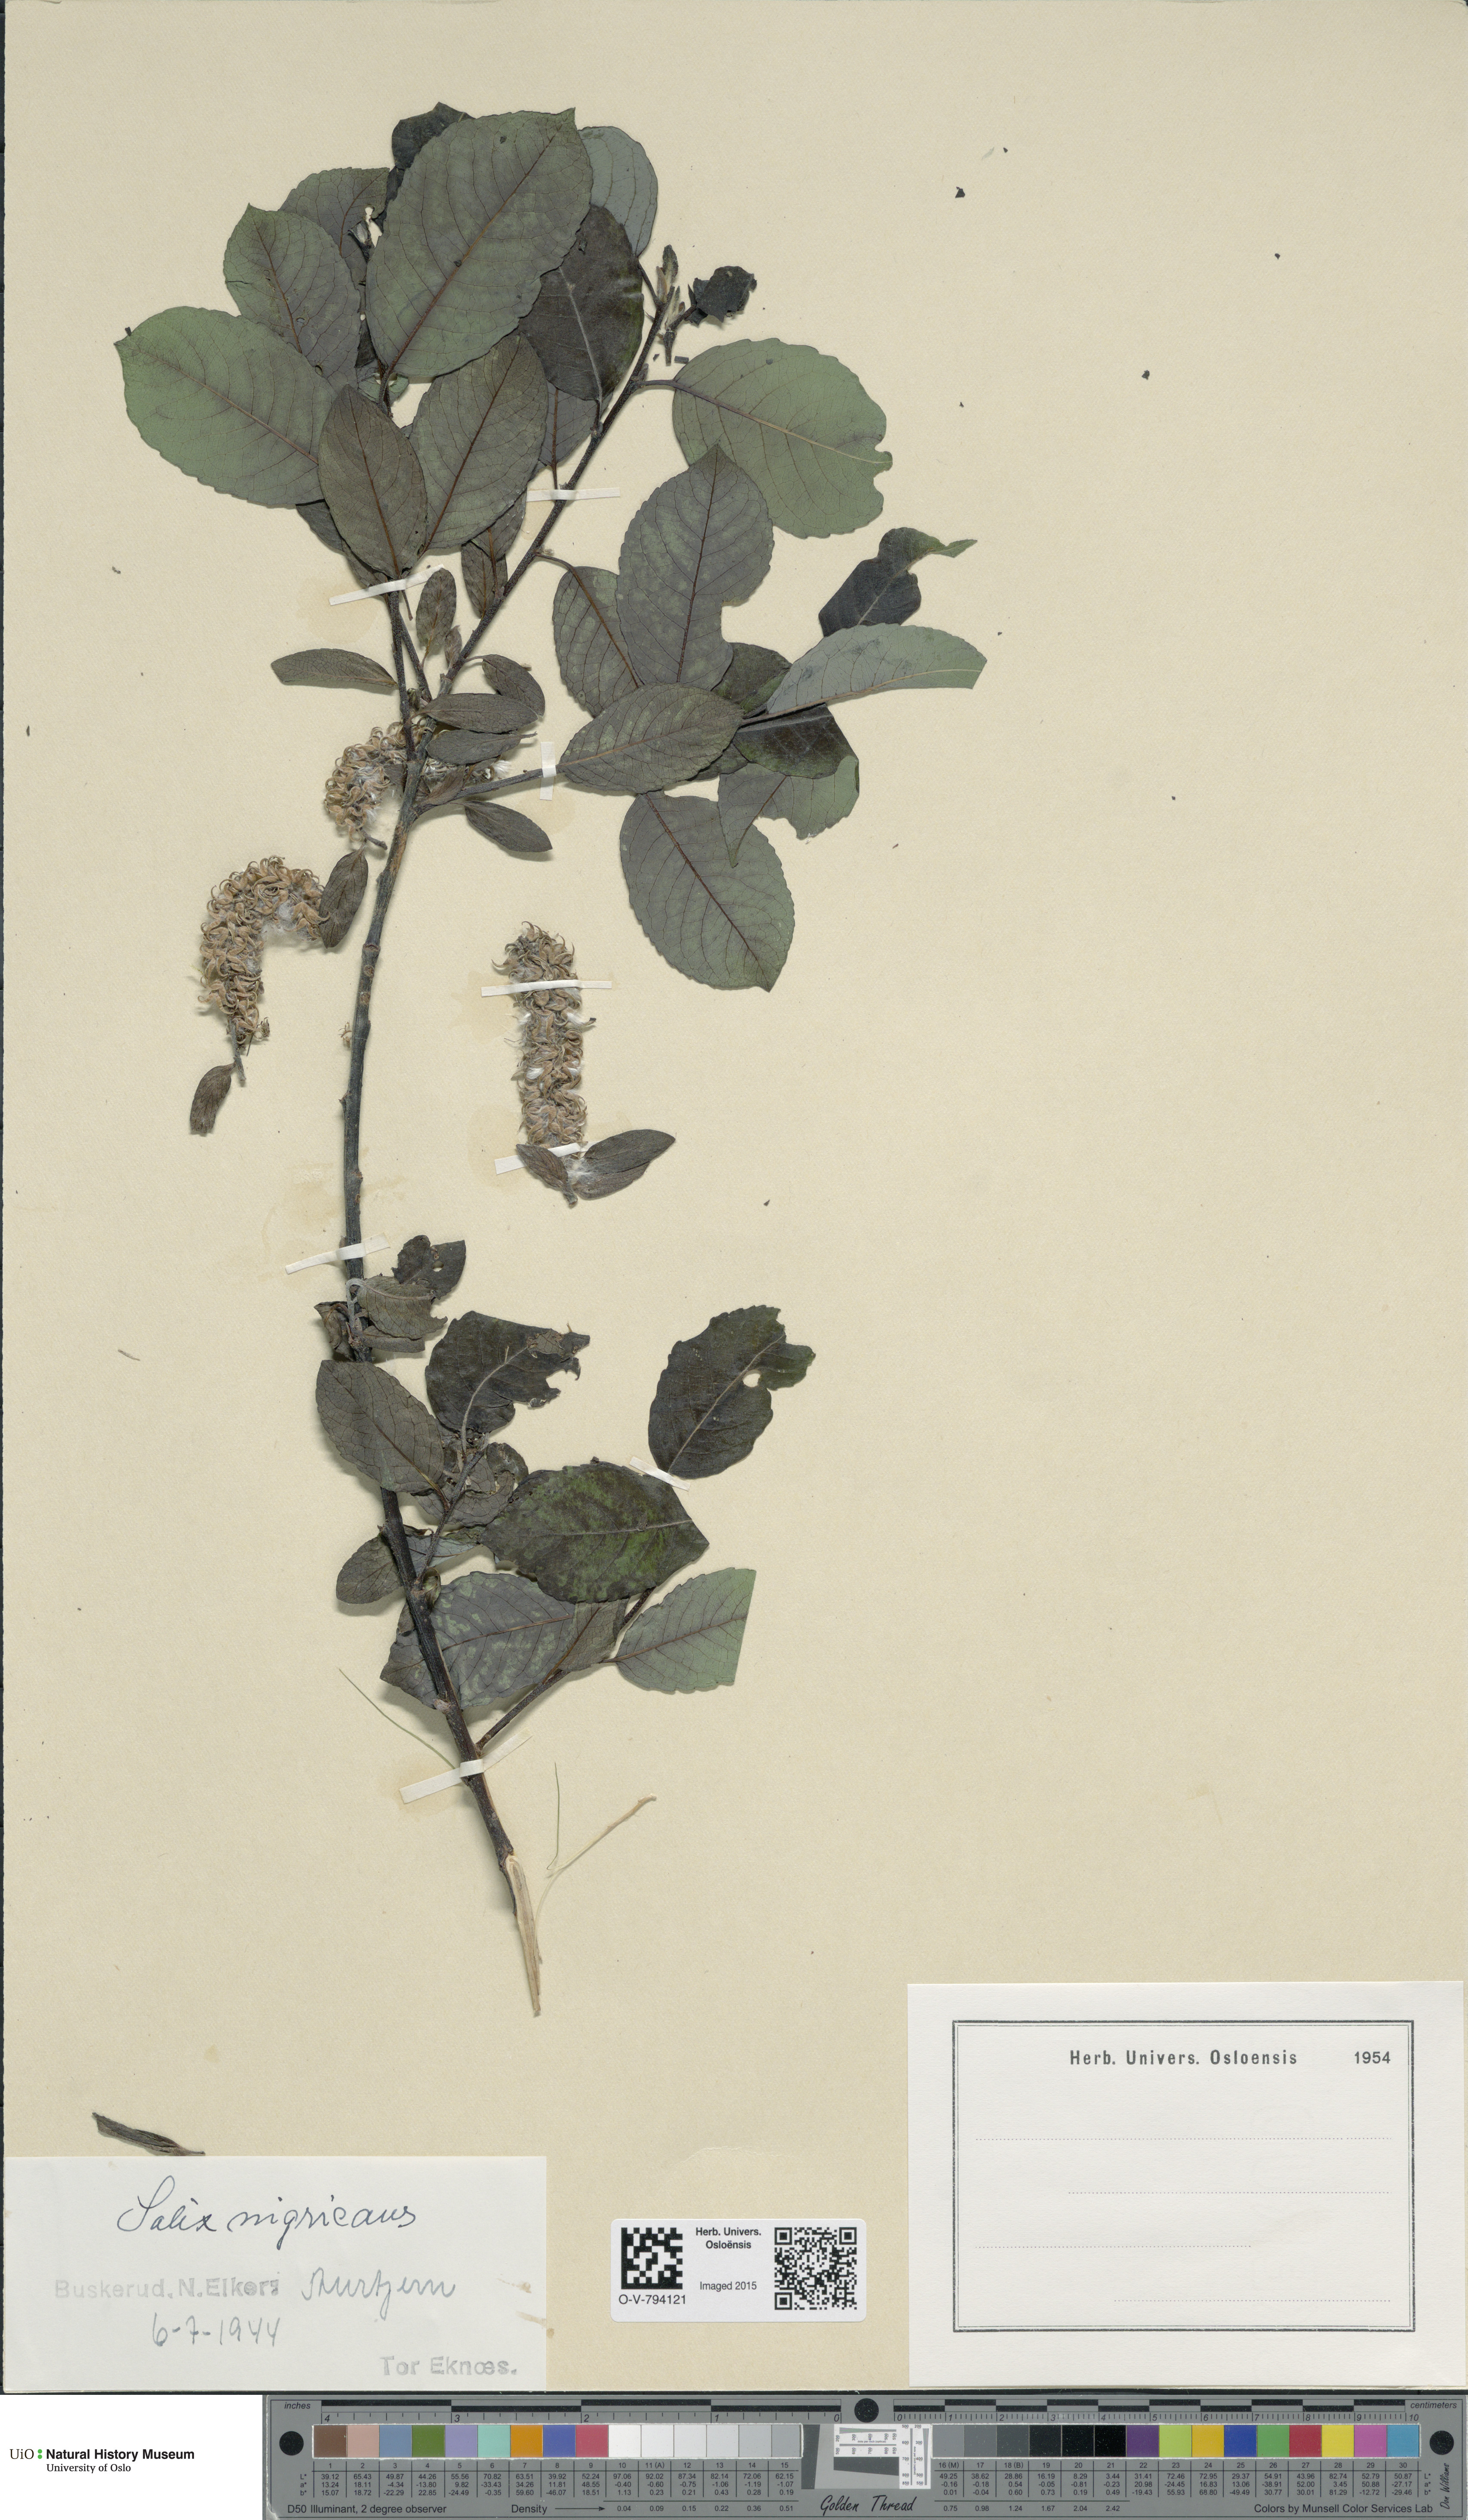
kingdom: Plantae
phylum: Tracheophyta
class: Magnoliopsida
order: Malpighiales
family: Salicaceae
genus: Salix
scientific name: Salix myrsinifolia
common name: Dark-leaved willow
